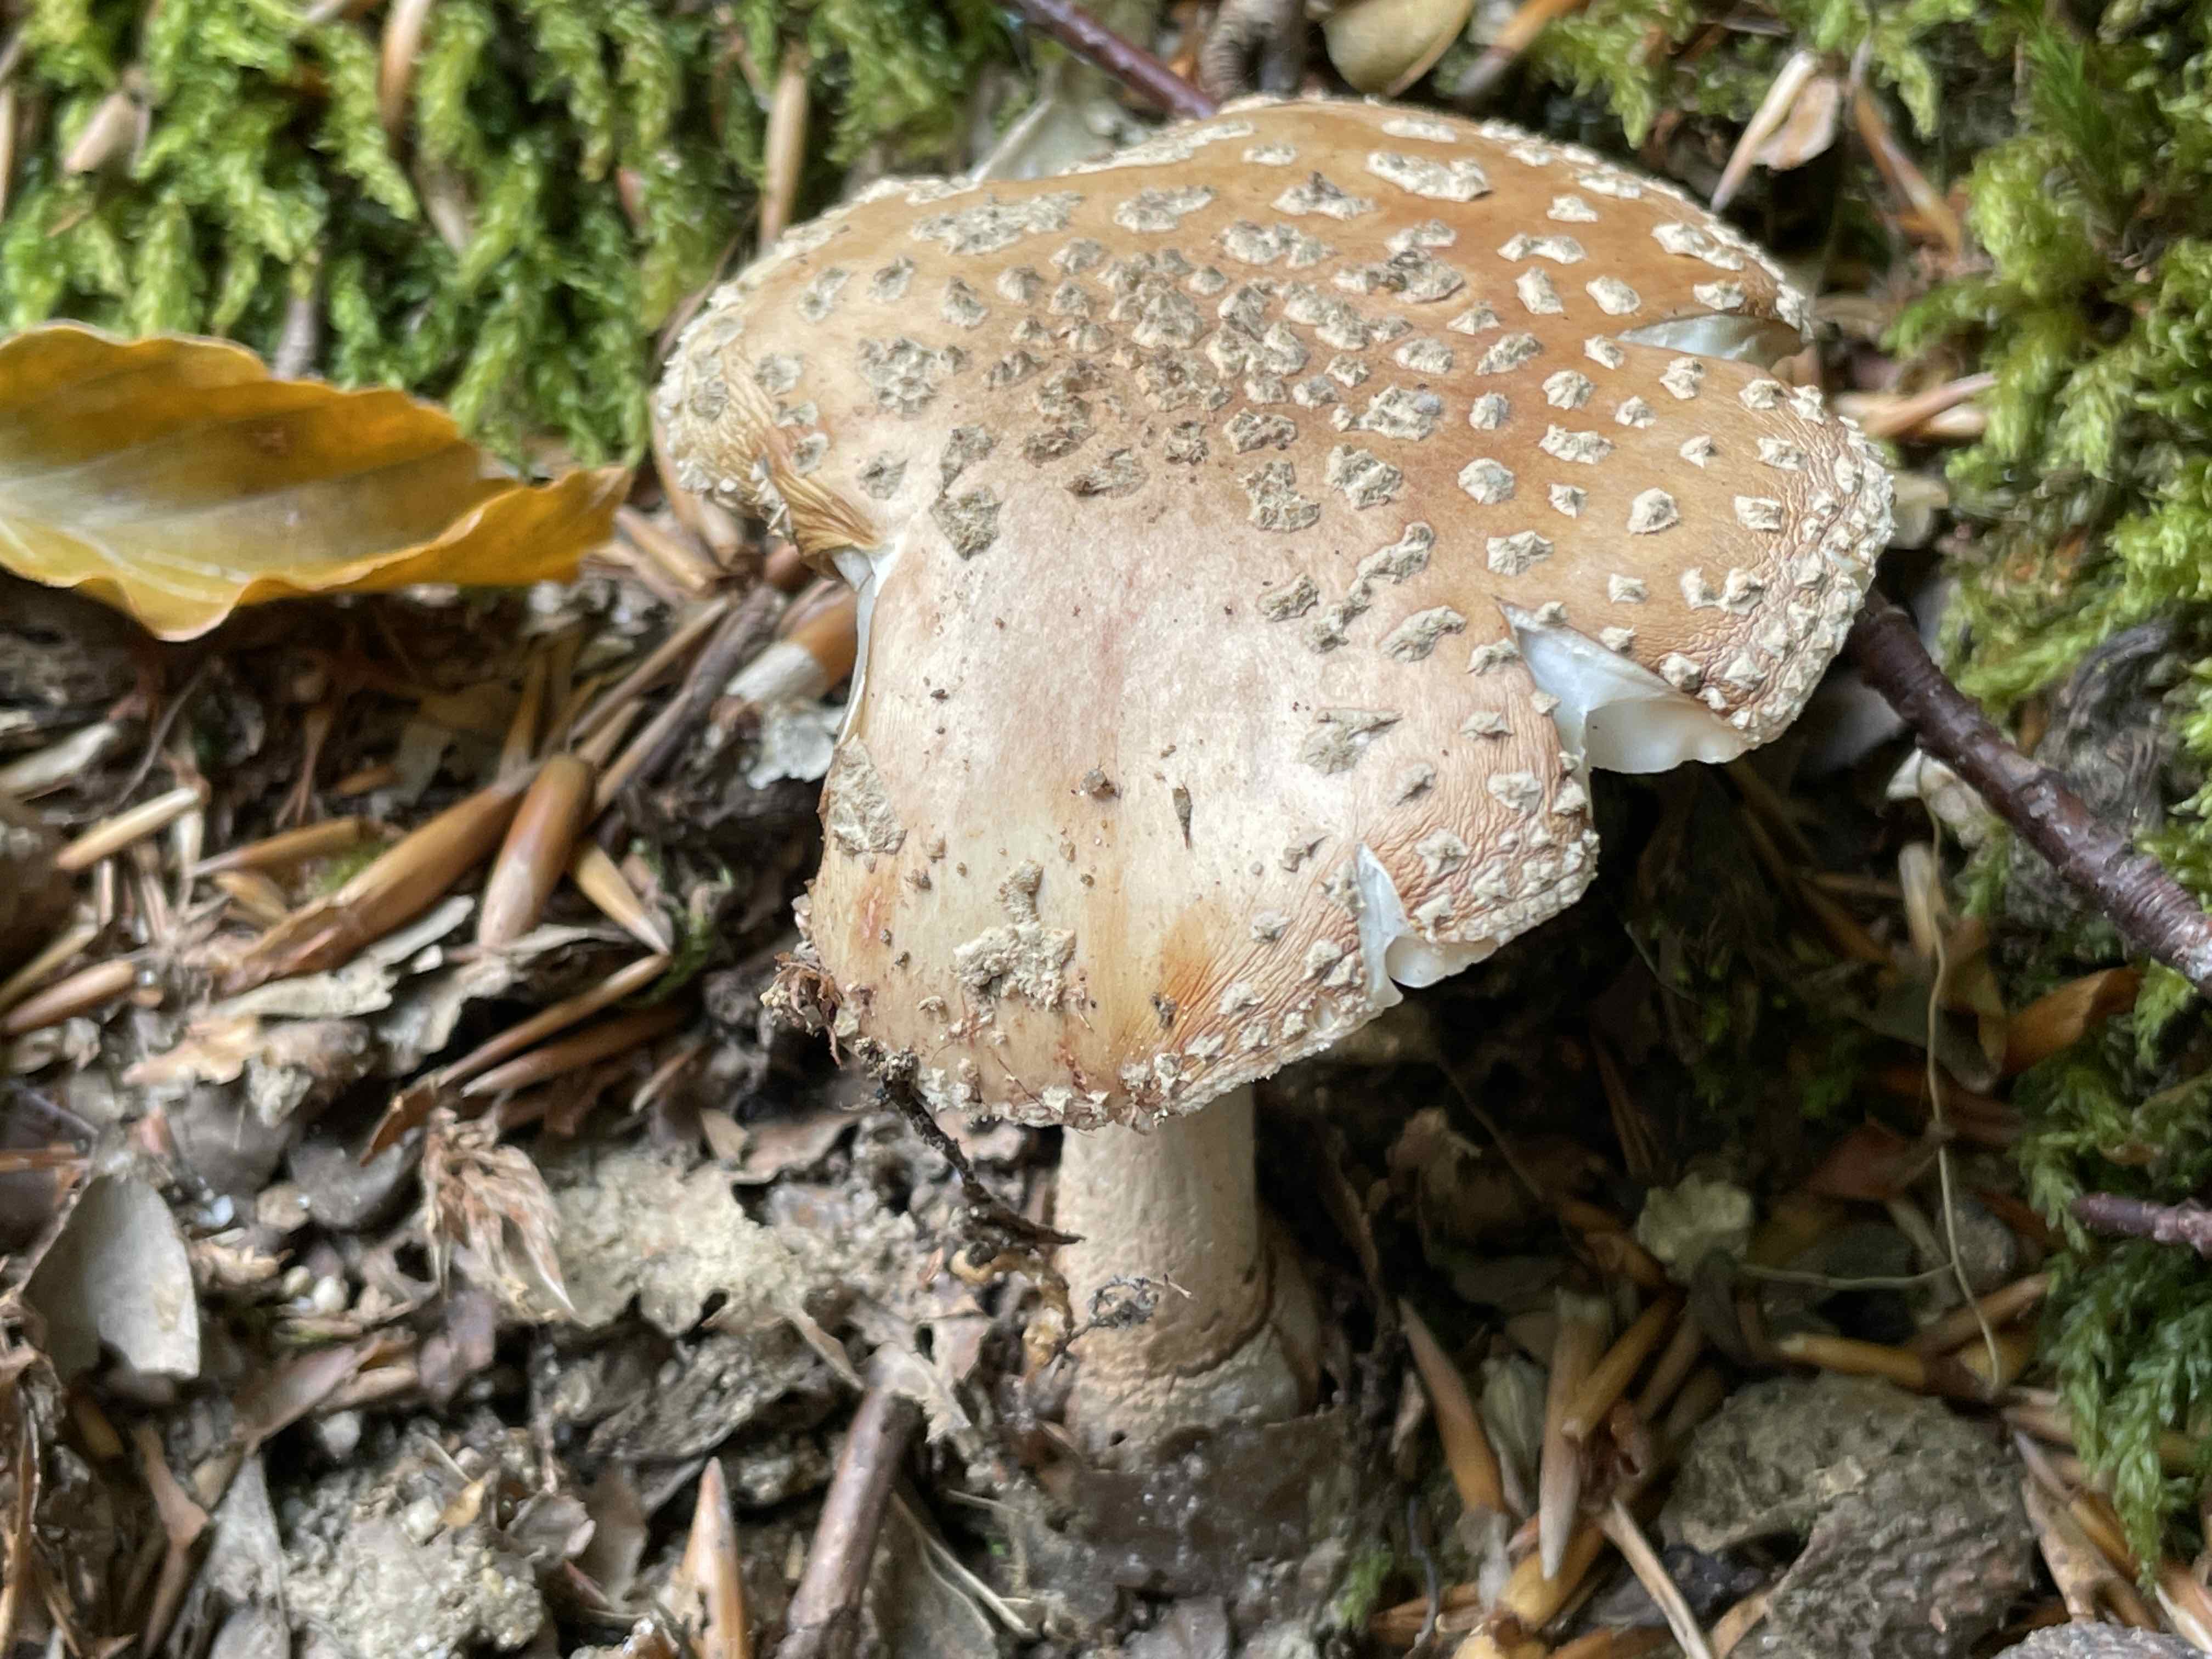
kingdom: Fungi
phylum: Basidiomycota
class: Agaricomycetes
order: Agaricales
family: Amanitaceae
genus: Amanita
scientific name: Amanita rubescens
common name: rødmende fluesvamp
